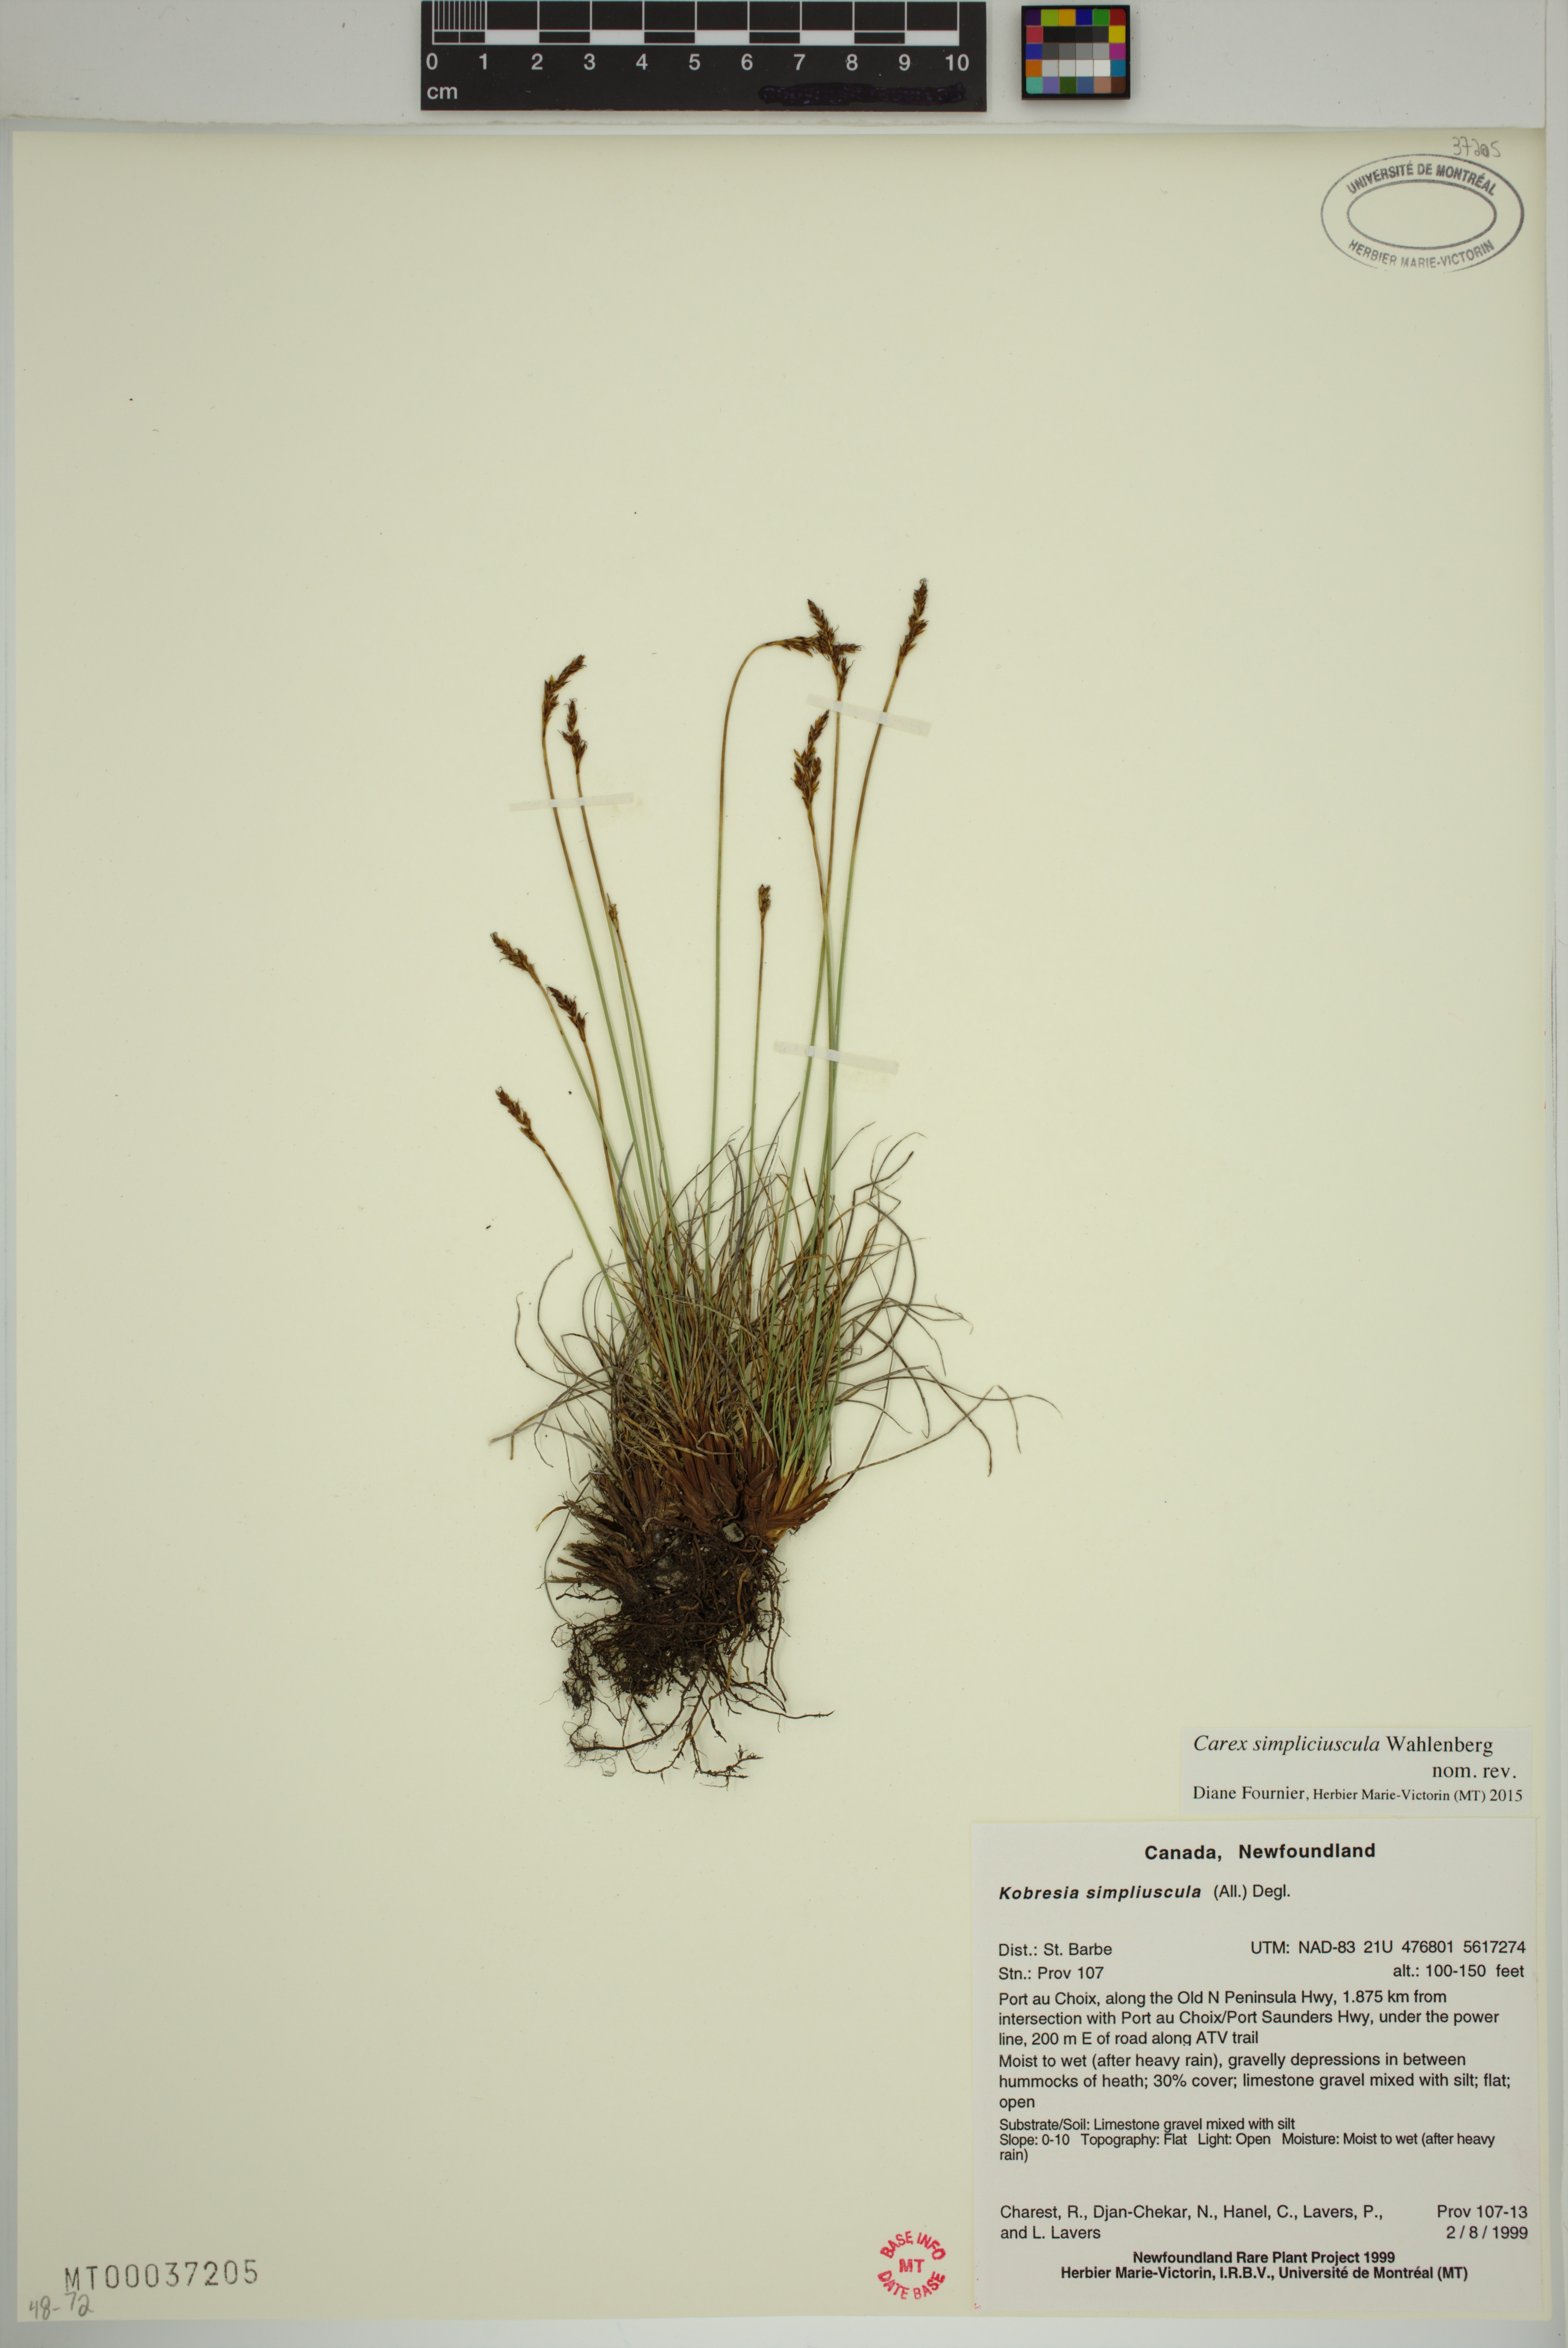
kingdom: Plantae
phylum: Tracheophyta
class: Liliopsida
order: Poales
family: Cyperaceae
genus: Carex
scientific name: Carex simpliciuscula
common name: Simple bog sedge
